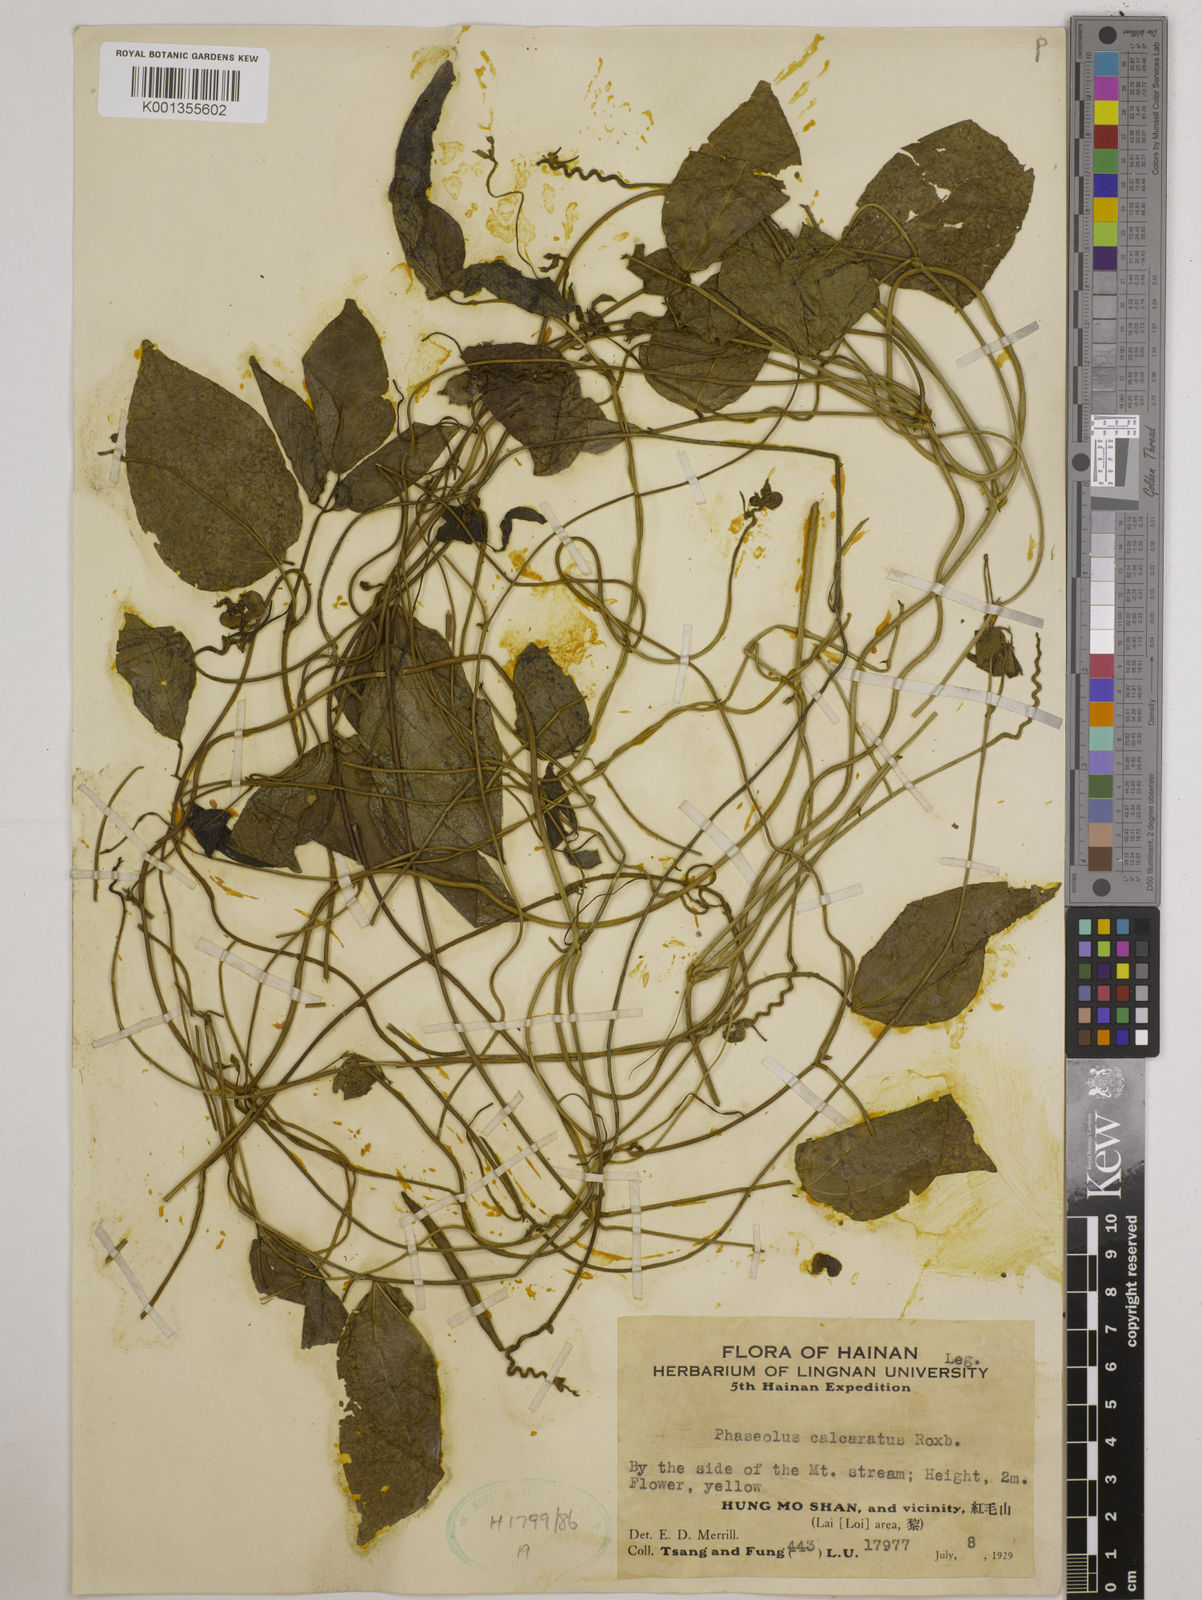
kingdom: Plantae
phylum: Tracheophyta
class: Magnoliopsida
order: Fabales
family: Fabaceae
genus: Vigna
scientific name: Vigna umbellata
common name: Oriental-bean
